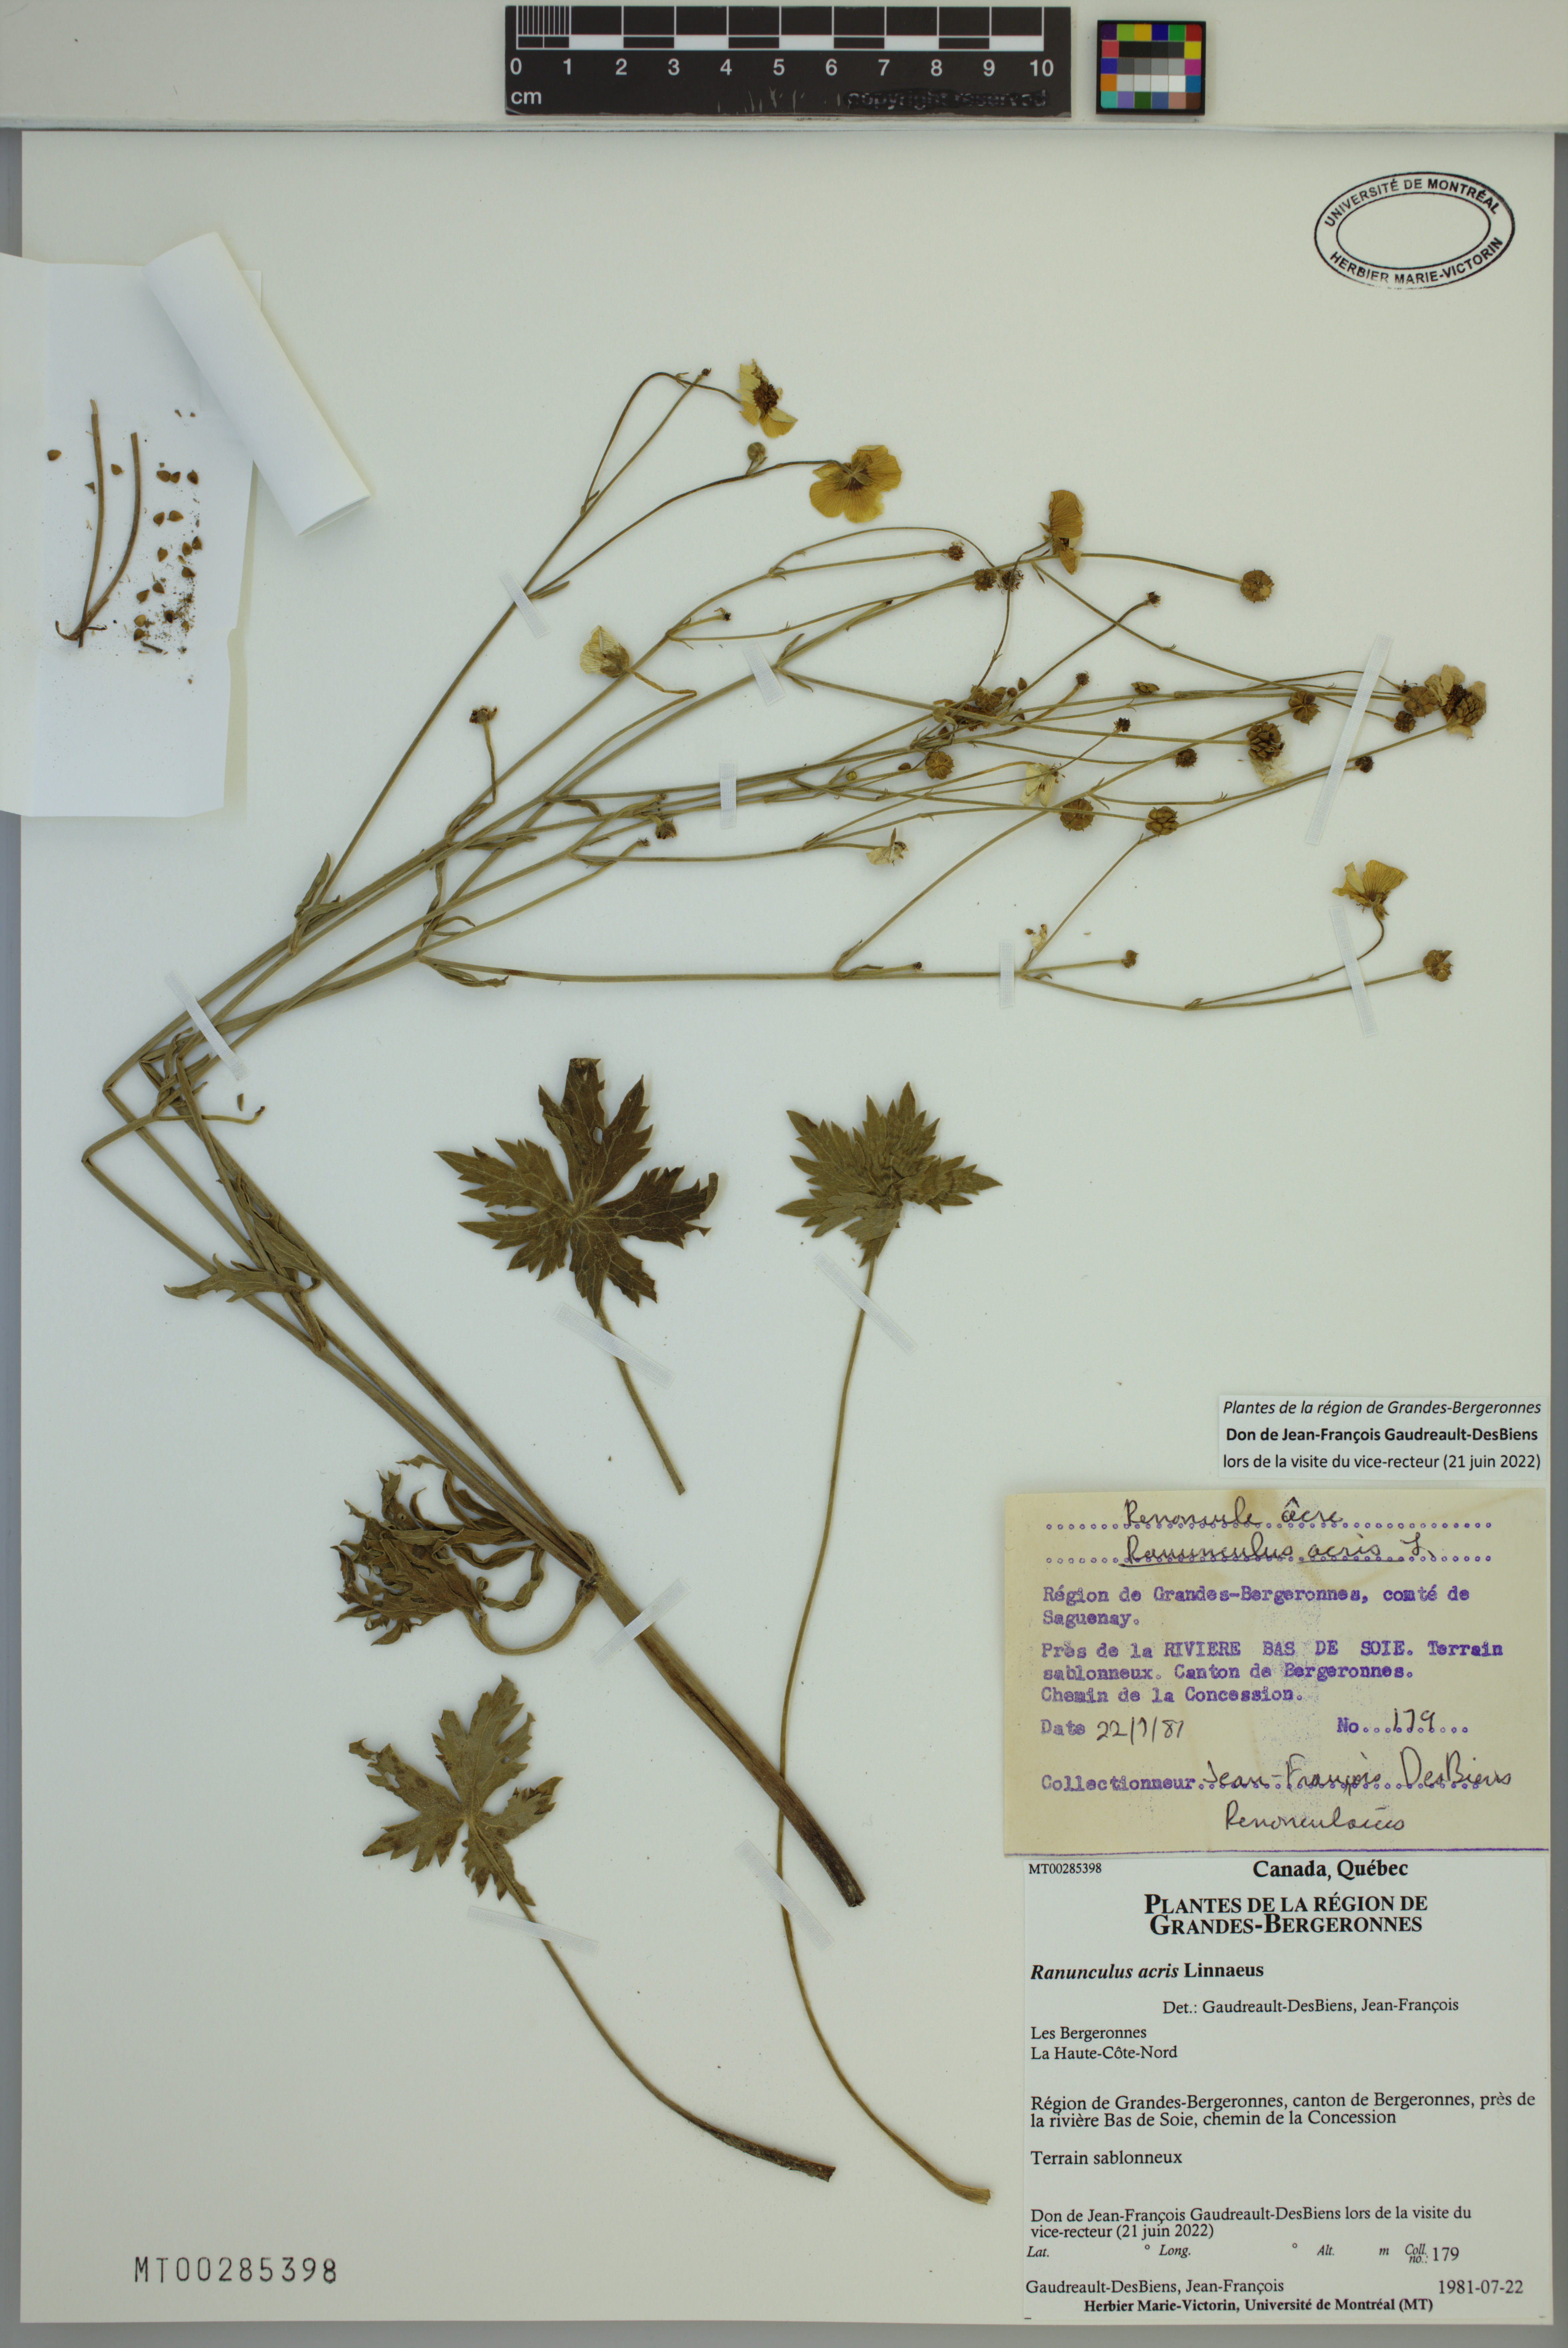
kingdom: Plantae
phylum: Tracheophyta
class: Magnoliopsida
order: Ranunculales
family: Ranunculaceae
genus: Ranunculus
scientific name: Ranunculus acris
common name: Meadow buttercup
